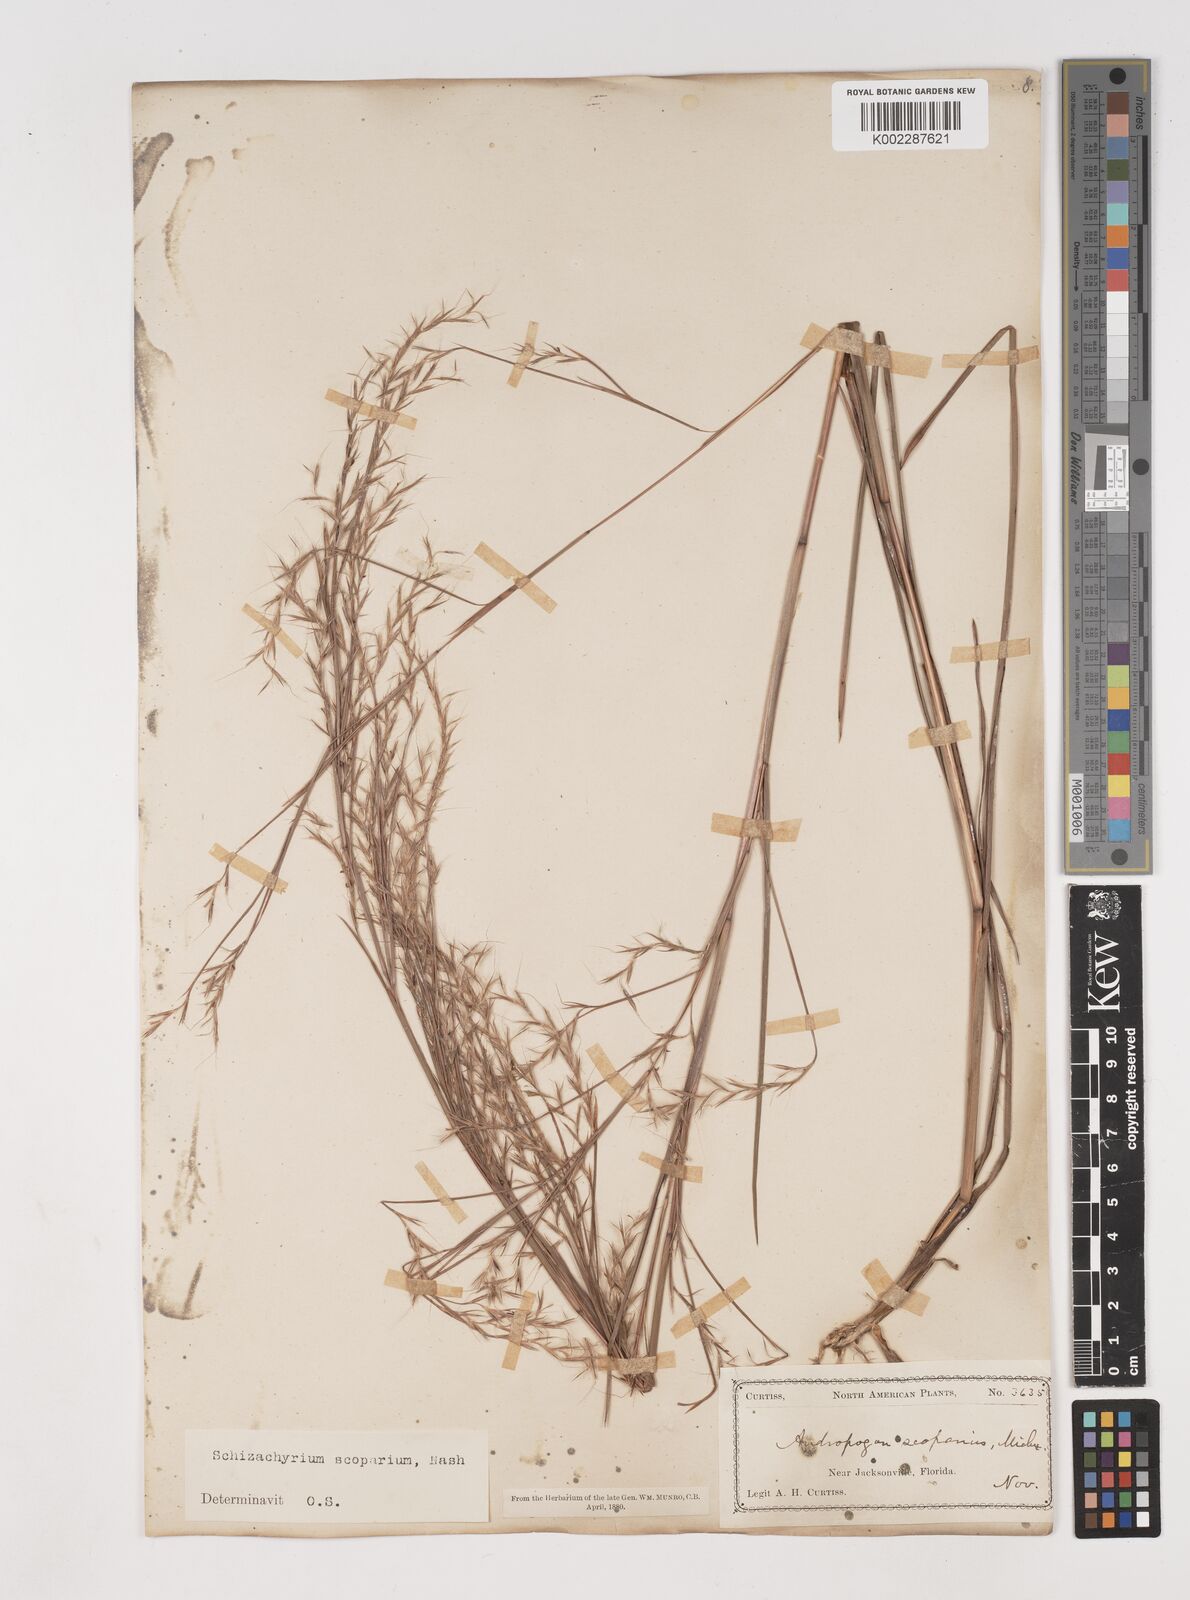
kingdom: Plantae
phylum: Tracheophyta
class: Liliopsida
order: Poales
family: Poaceae
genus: Schizachyrium
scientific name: Schizachyrium scoparium
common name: Little bluestem
